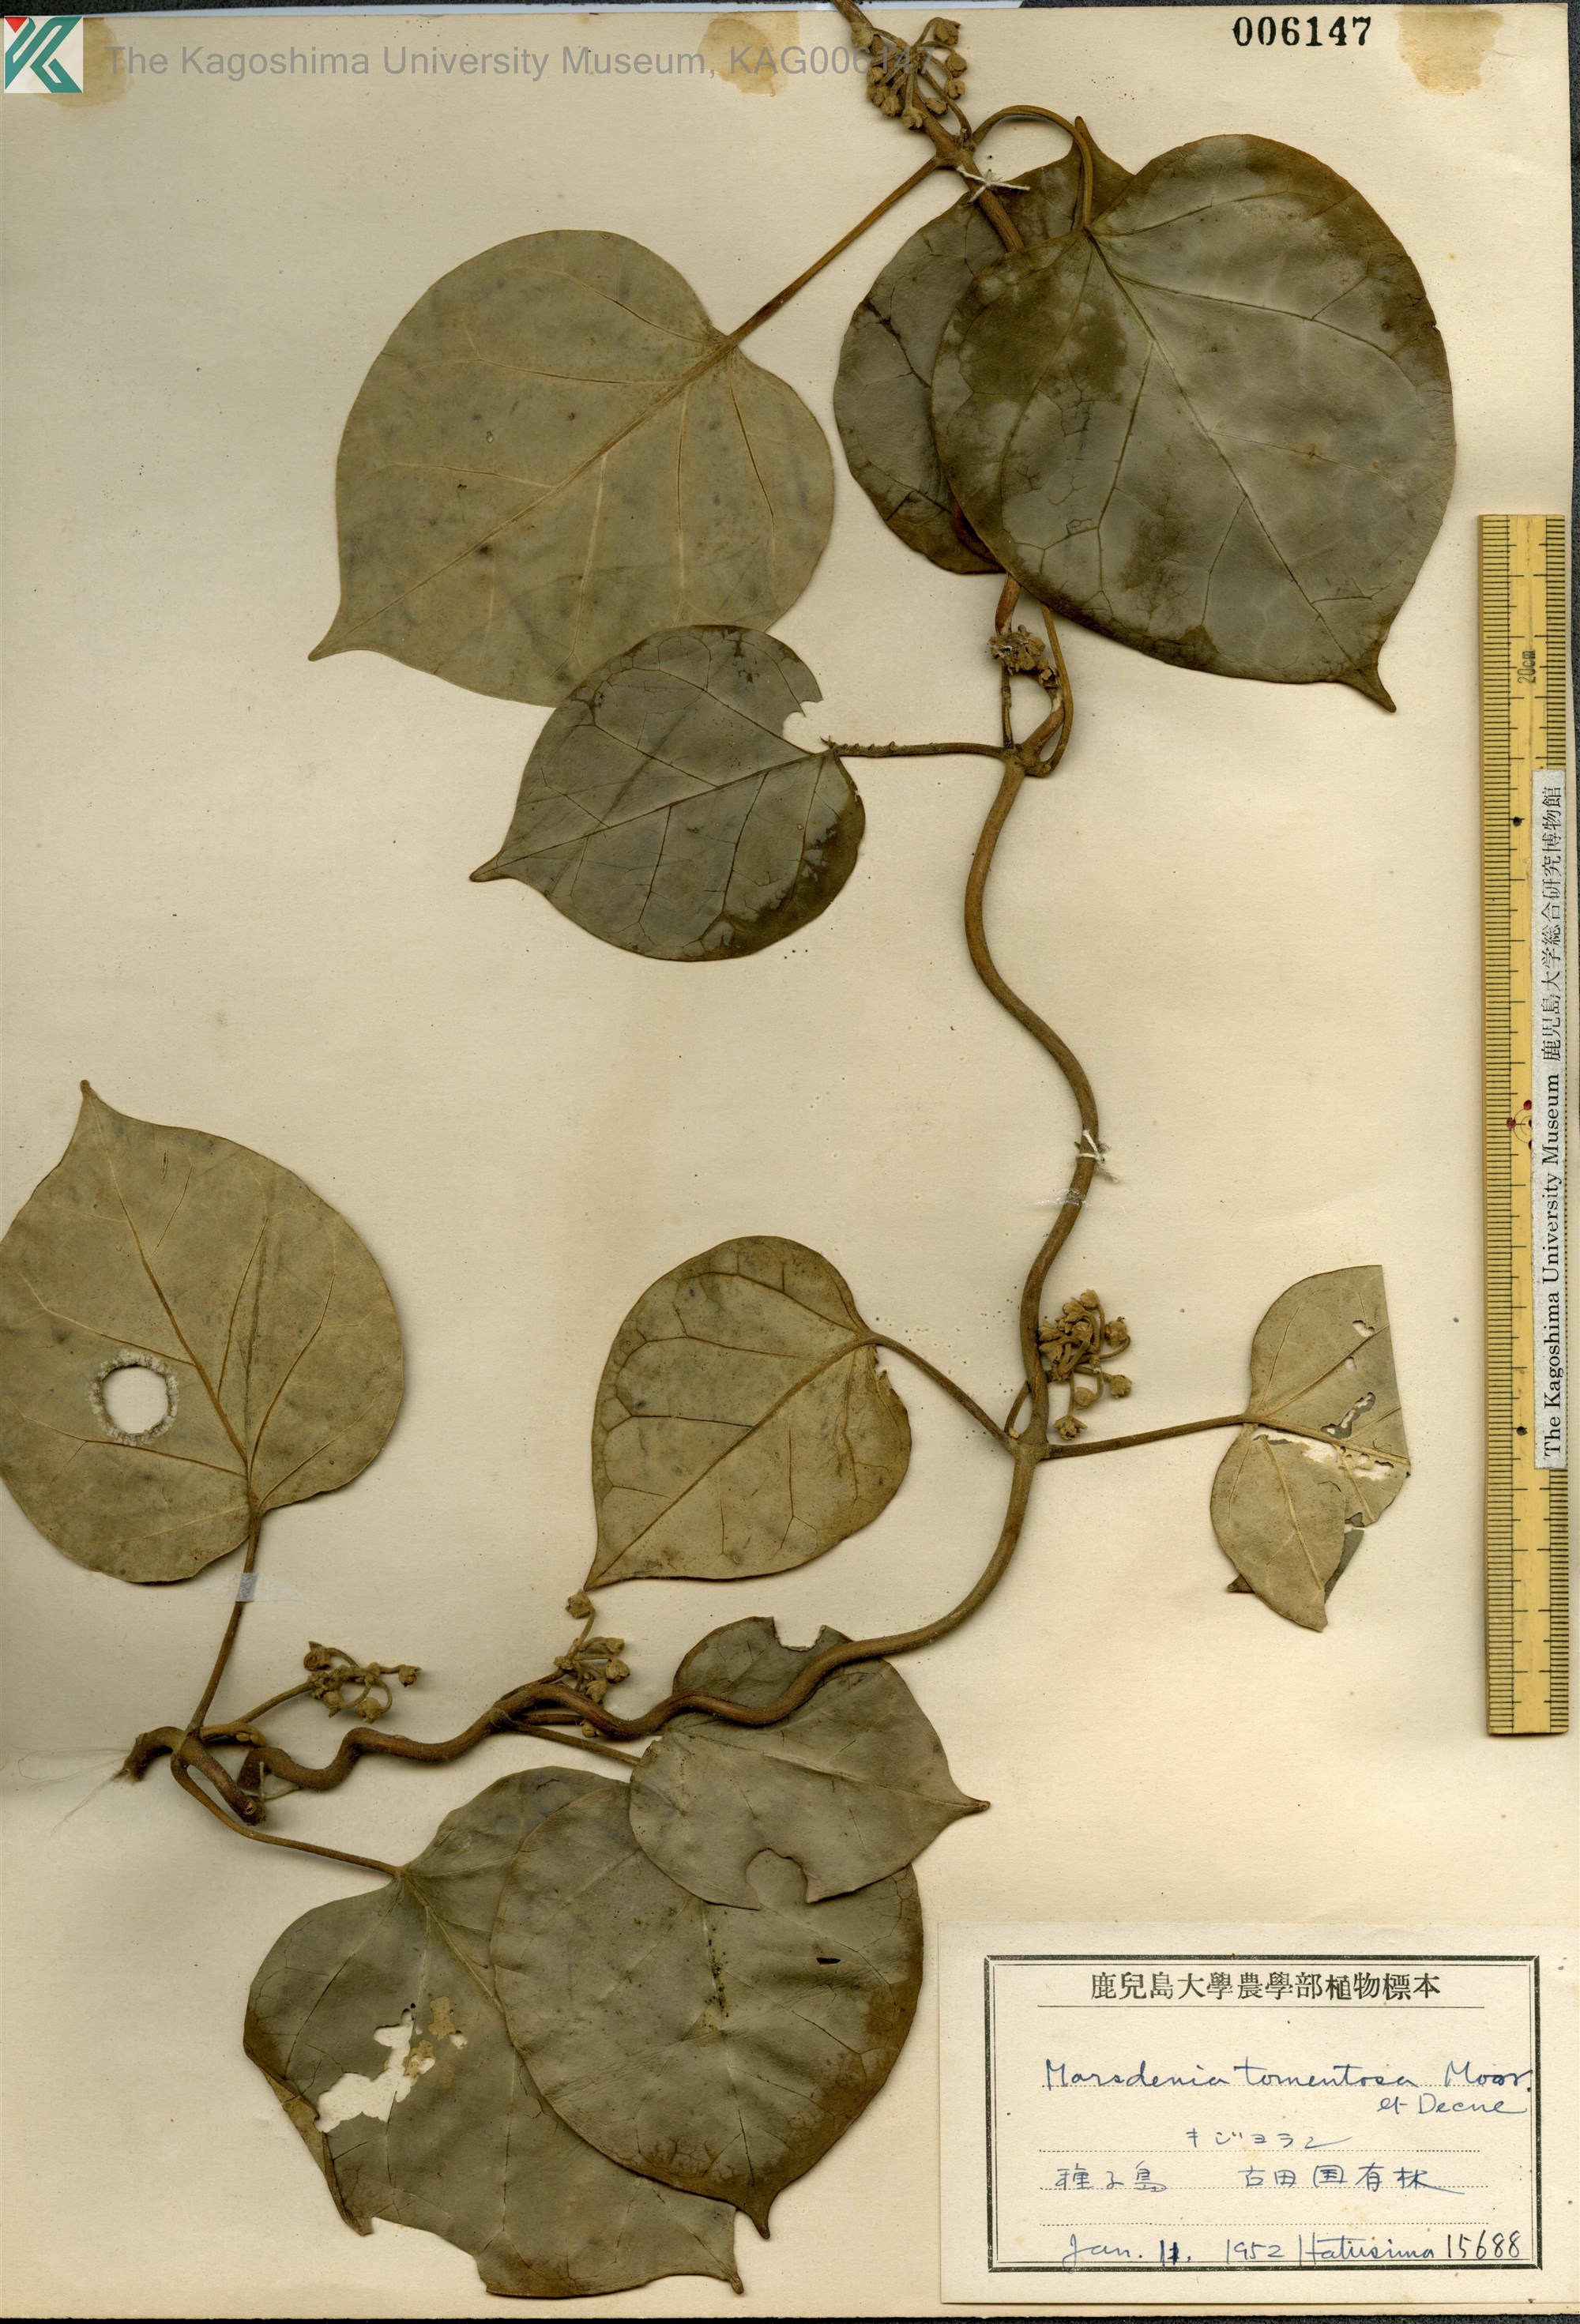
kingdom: Plantae
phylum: Tracheophyta
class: Magnoliopsida
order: Gentianales
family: Apocynaceae
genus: Sinomarsdenia
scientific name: Sinomarsdenia tomentosa
